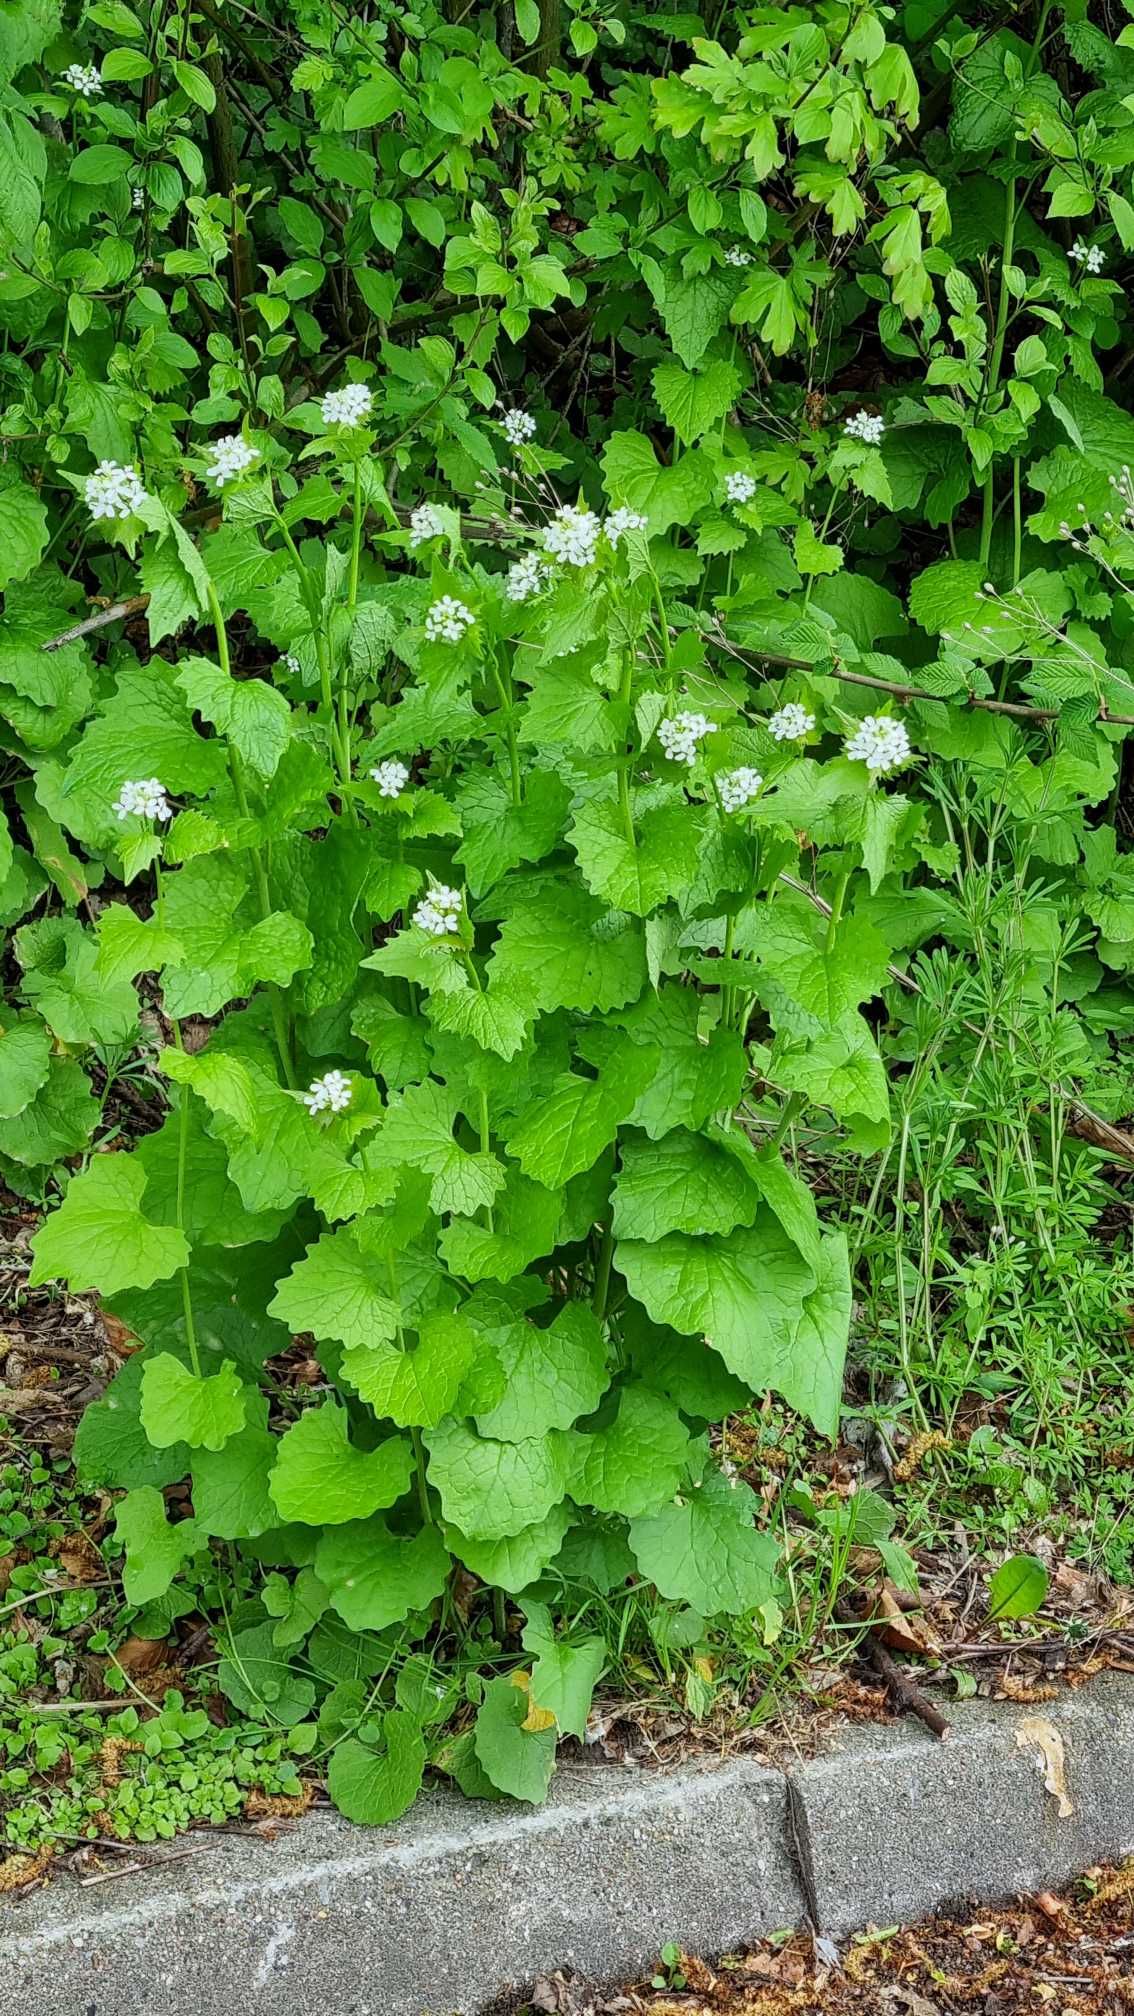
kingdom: Plantae
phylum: Tracheophyta
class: Magnoliopsida
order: Brassicales
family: Brassicaceae
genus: Alliaria
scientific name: Alliaria petiolata
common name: Løgkarse
